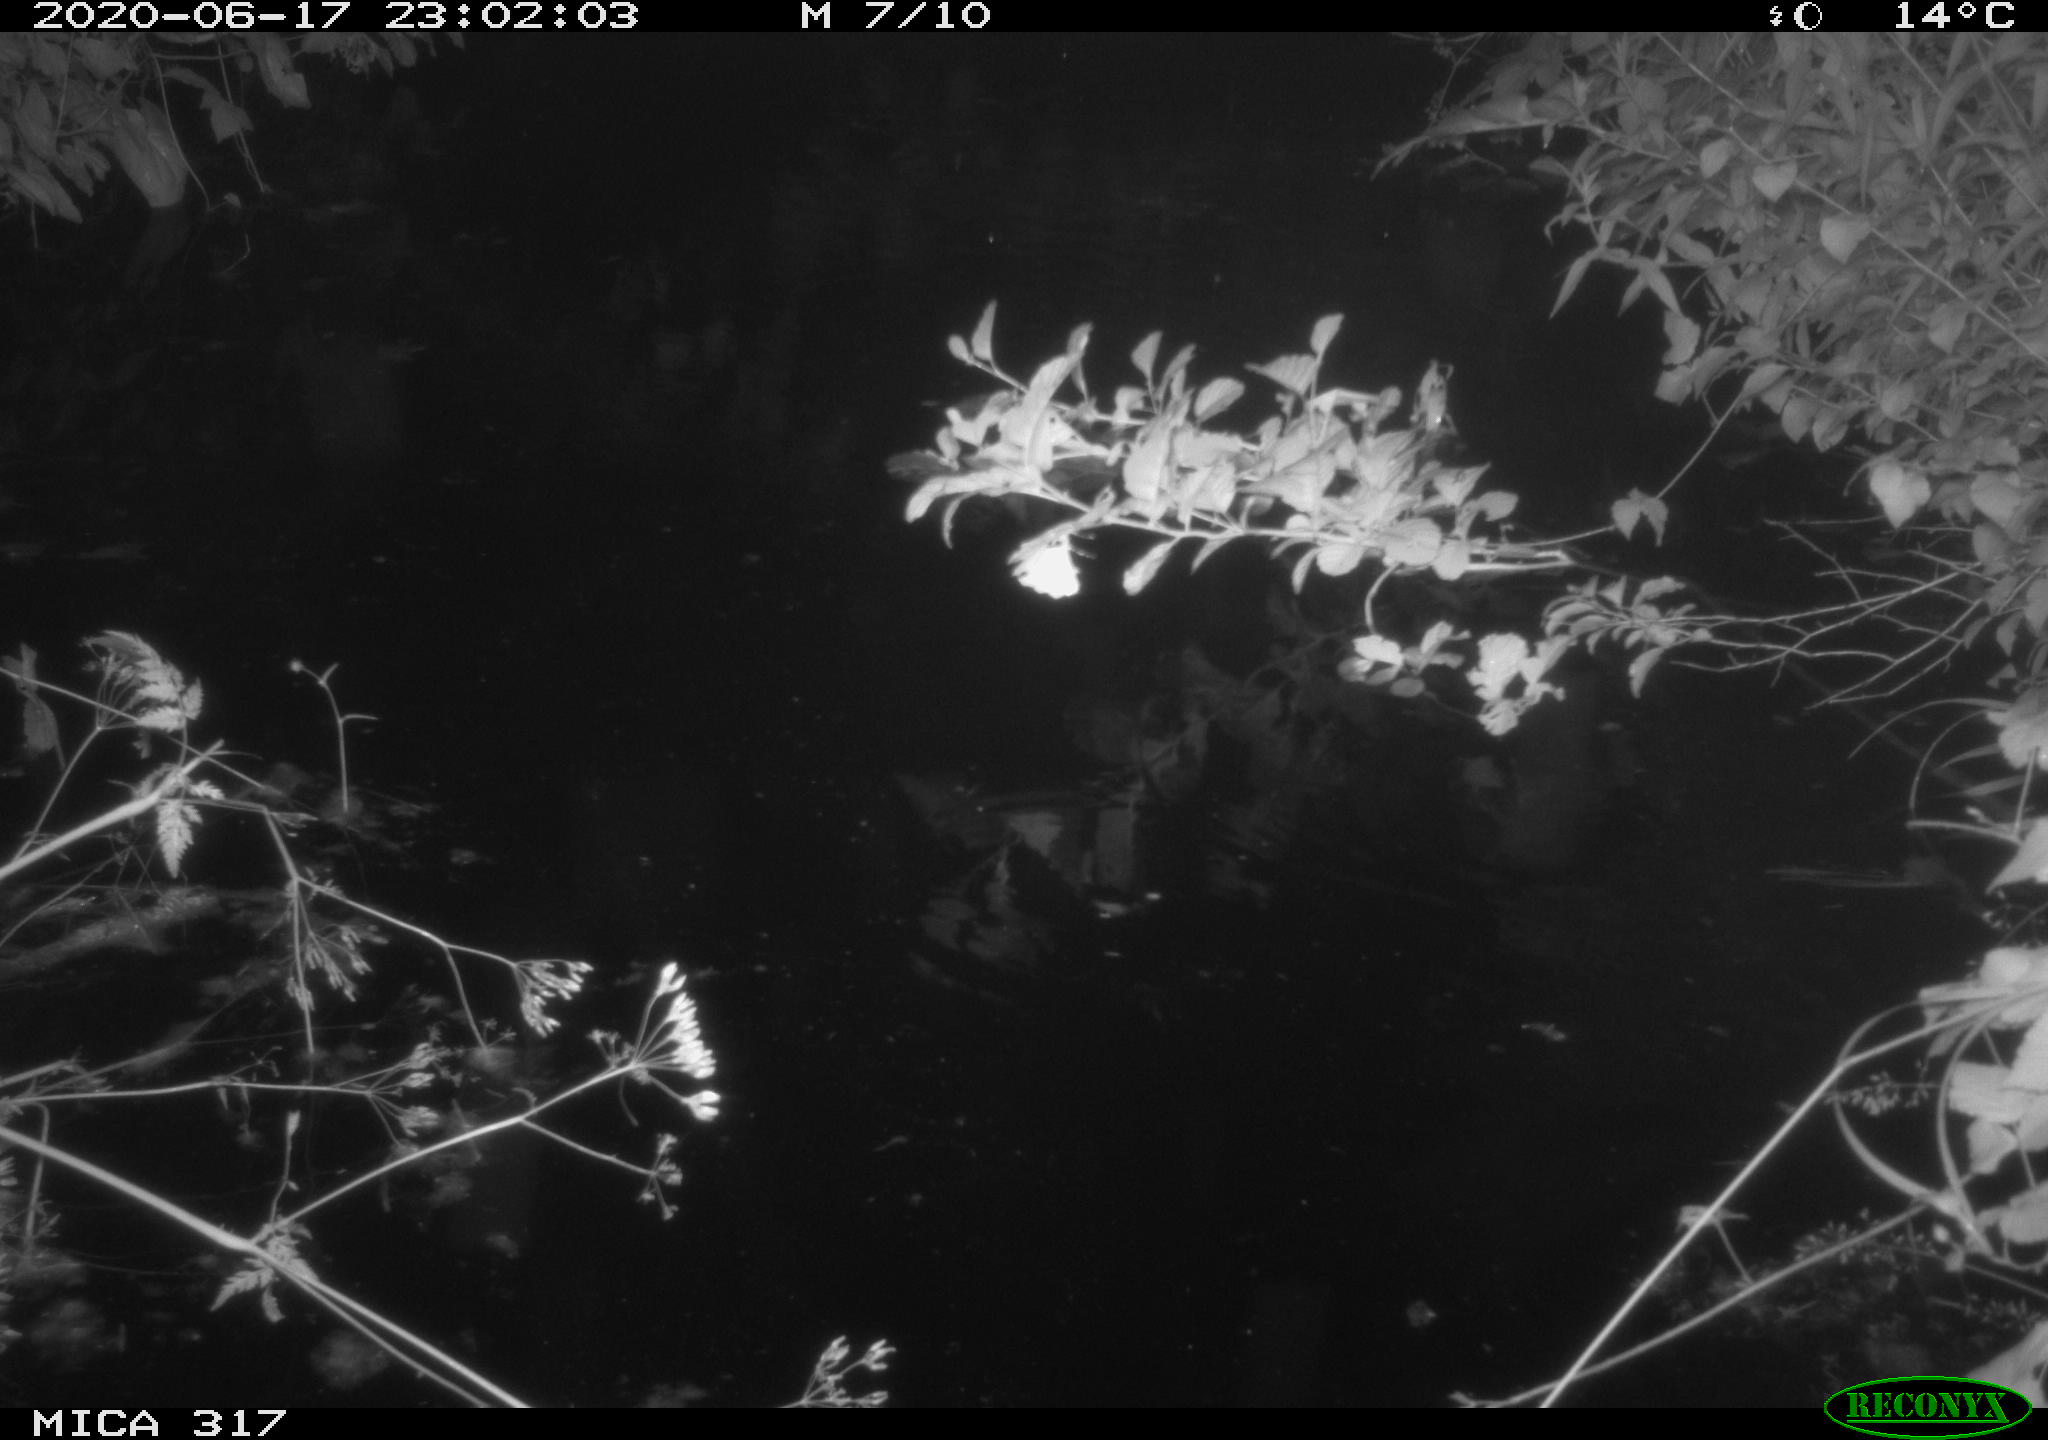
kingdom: Animalia
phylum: Chordata
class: Aves
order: Anseriformes
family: Anatidae
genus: Anas
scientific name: Anas platyrhynchos
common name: Mallard
